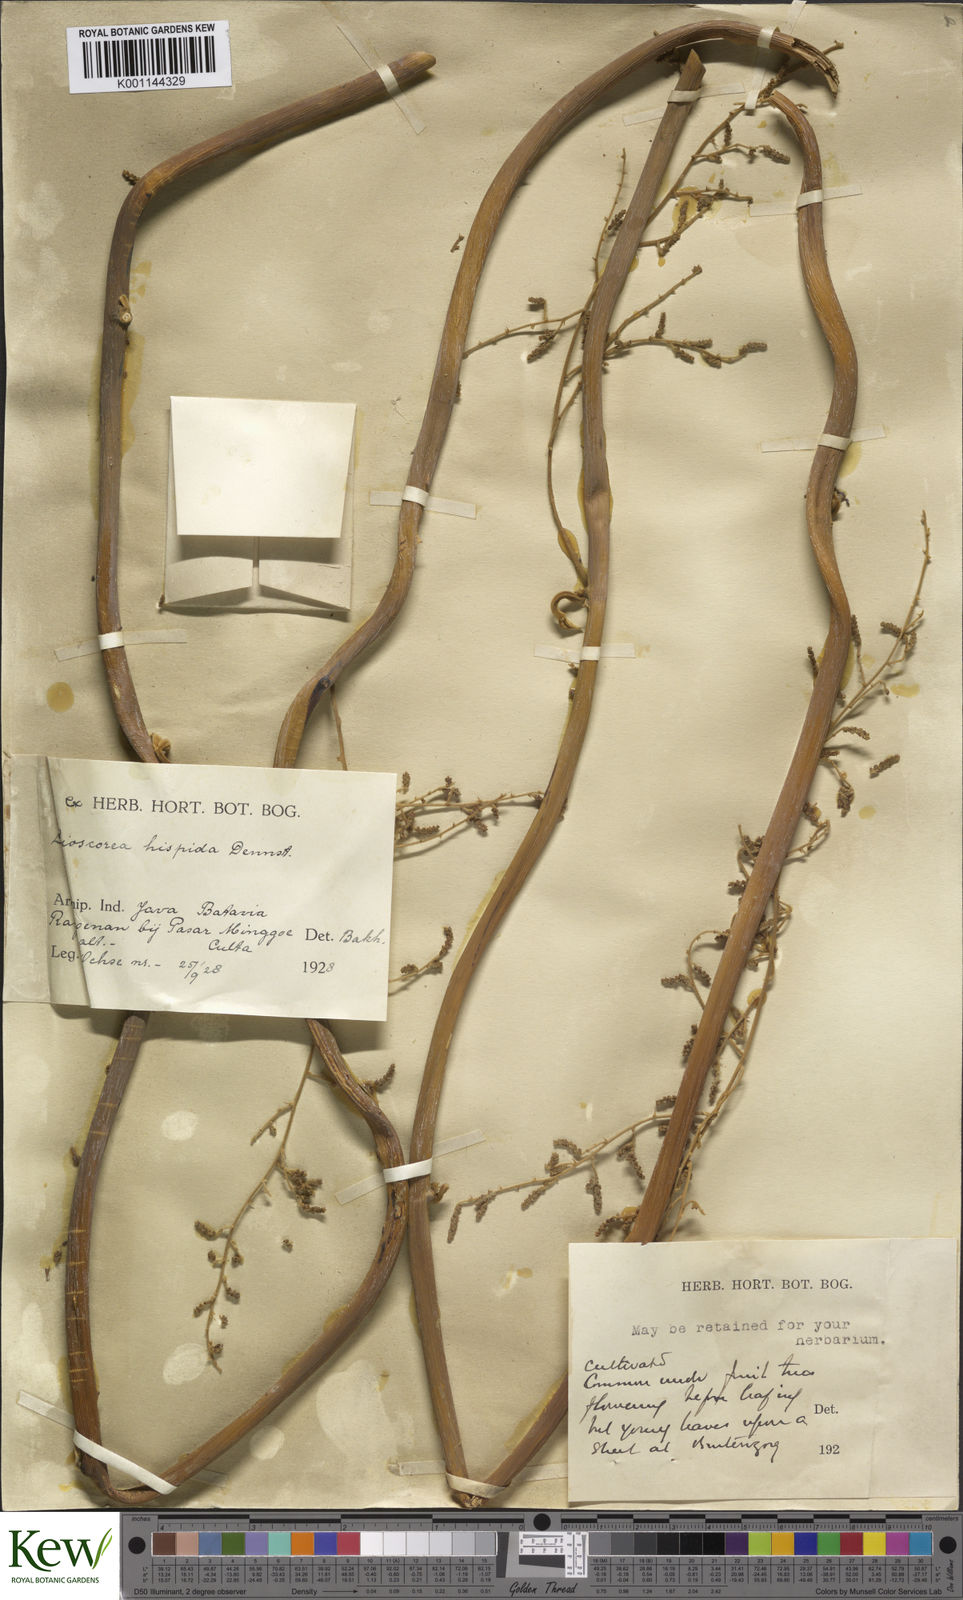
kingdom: Plantae
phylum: Tracheophyta
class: Liliopsida
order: Dioscoreales
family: Dioscoreaceae
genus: Dioscorea
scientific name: Dioscorea hispida
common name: Asiatic bitter yam
